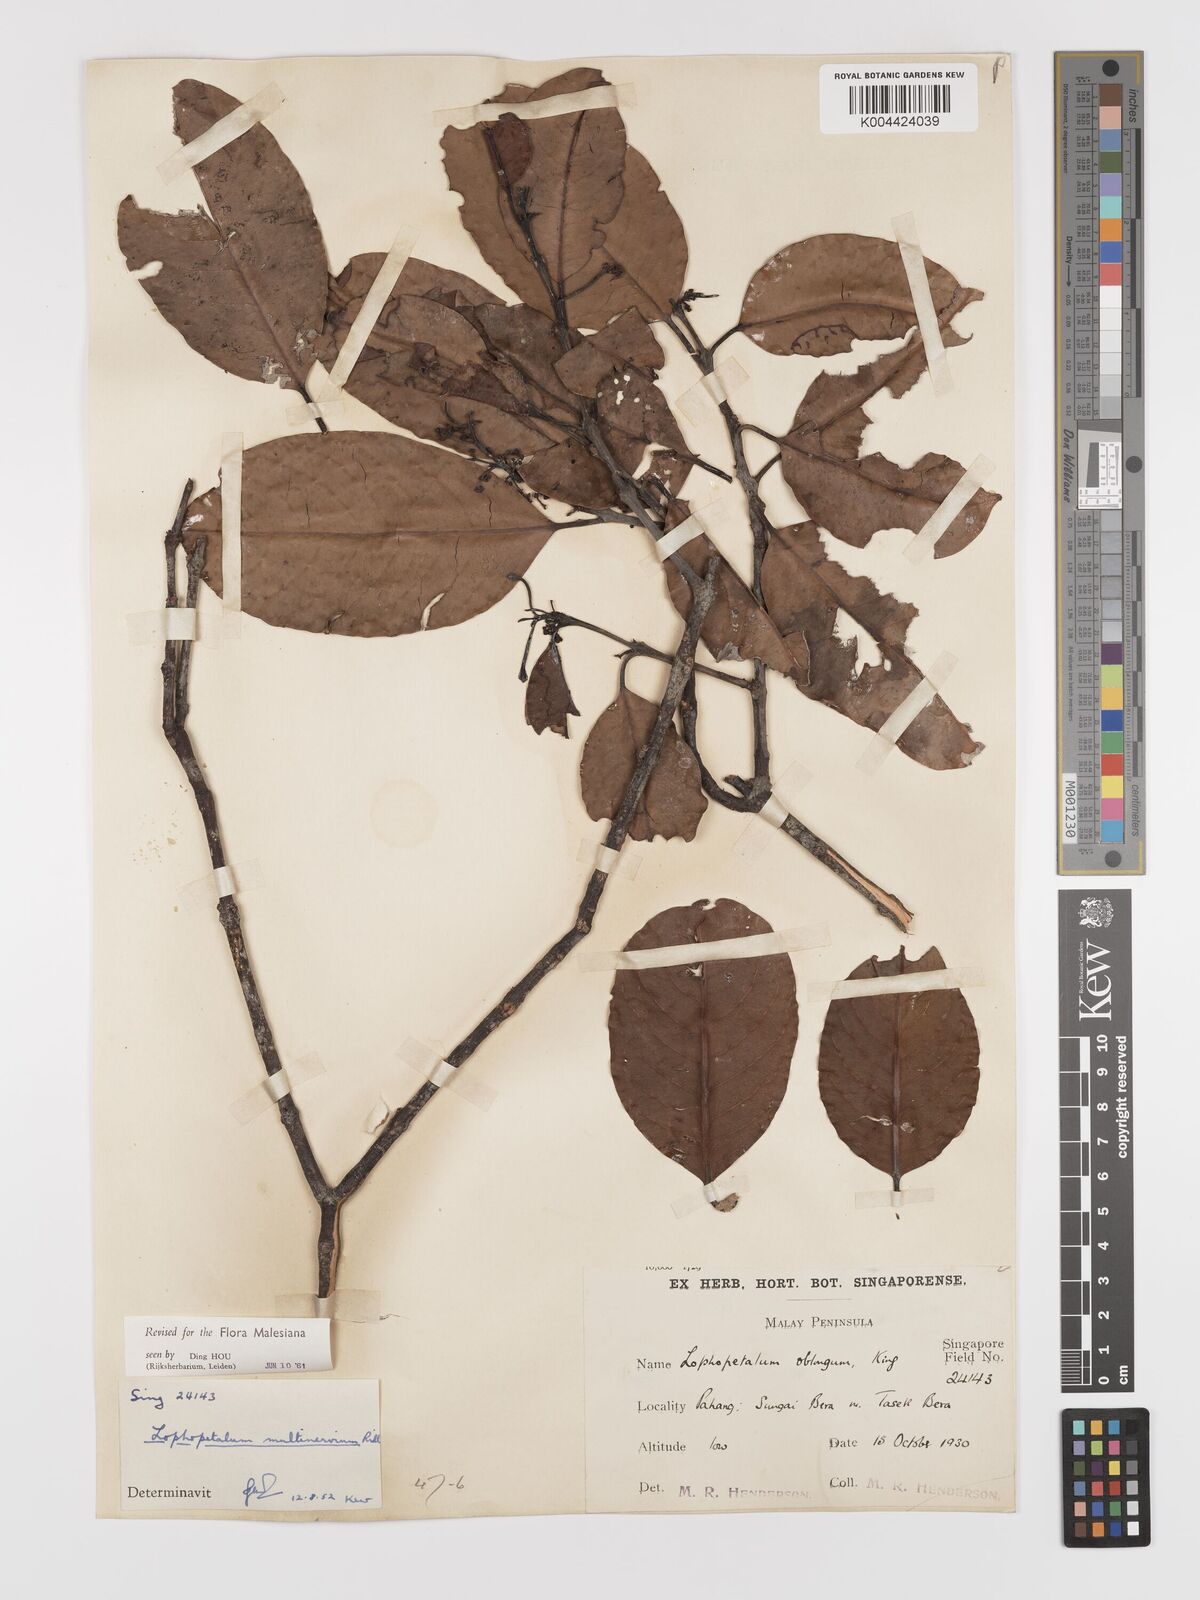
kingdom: Plantae
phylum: Tracheophyta
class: Magnoliopsida
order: Celastrales
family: Celastraceae
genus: Lophopetalum
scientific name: Lophopetalum multinervium
